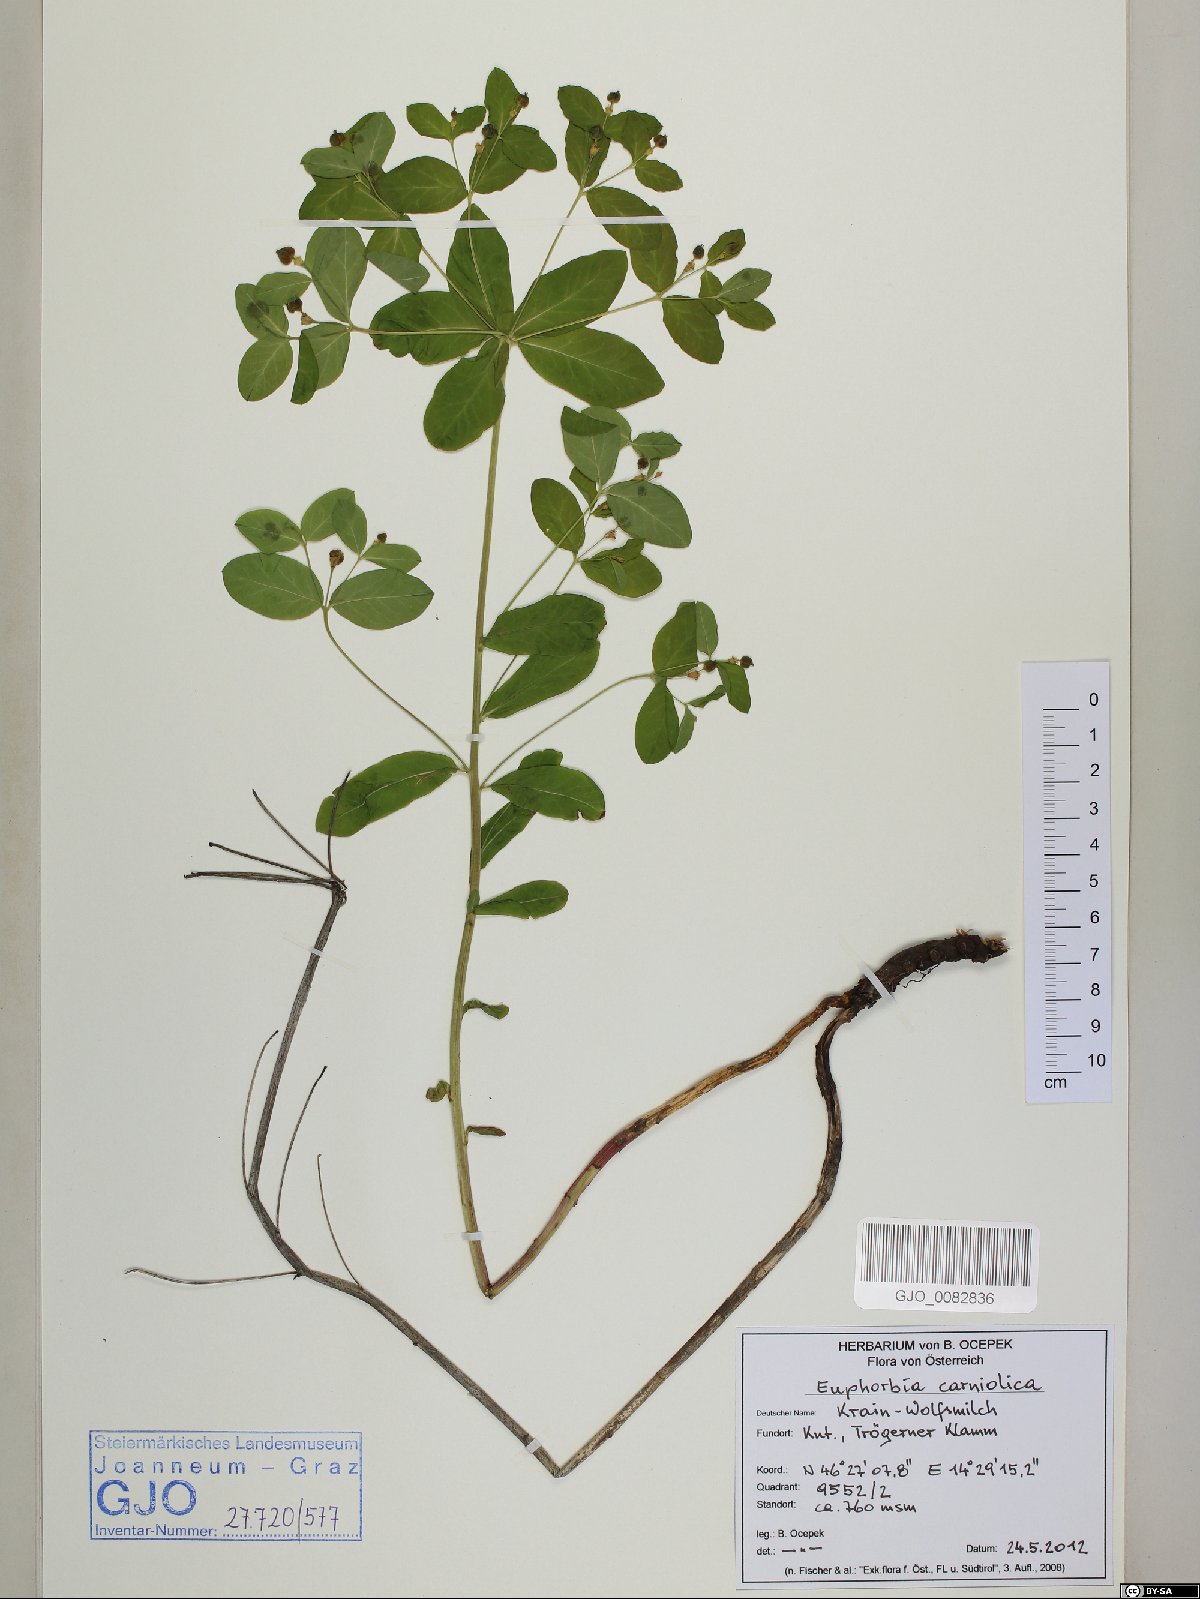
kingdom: Plantae
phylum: Tracheophyta
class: Magnoliopsida
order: Malpighiales
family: Euphorbiaceae
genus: Euphorbia
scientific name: Euphorbia carniolica
